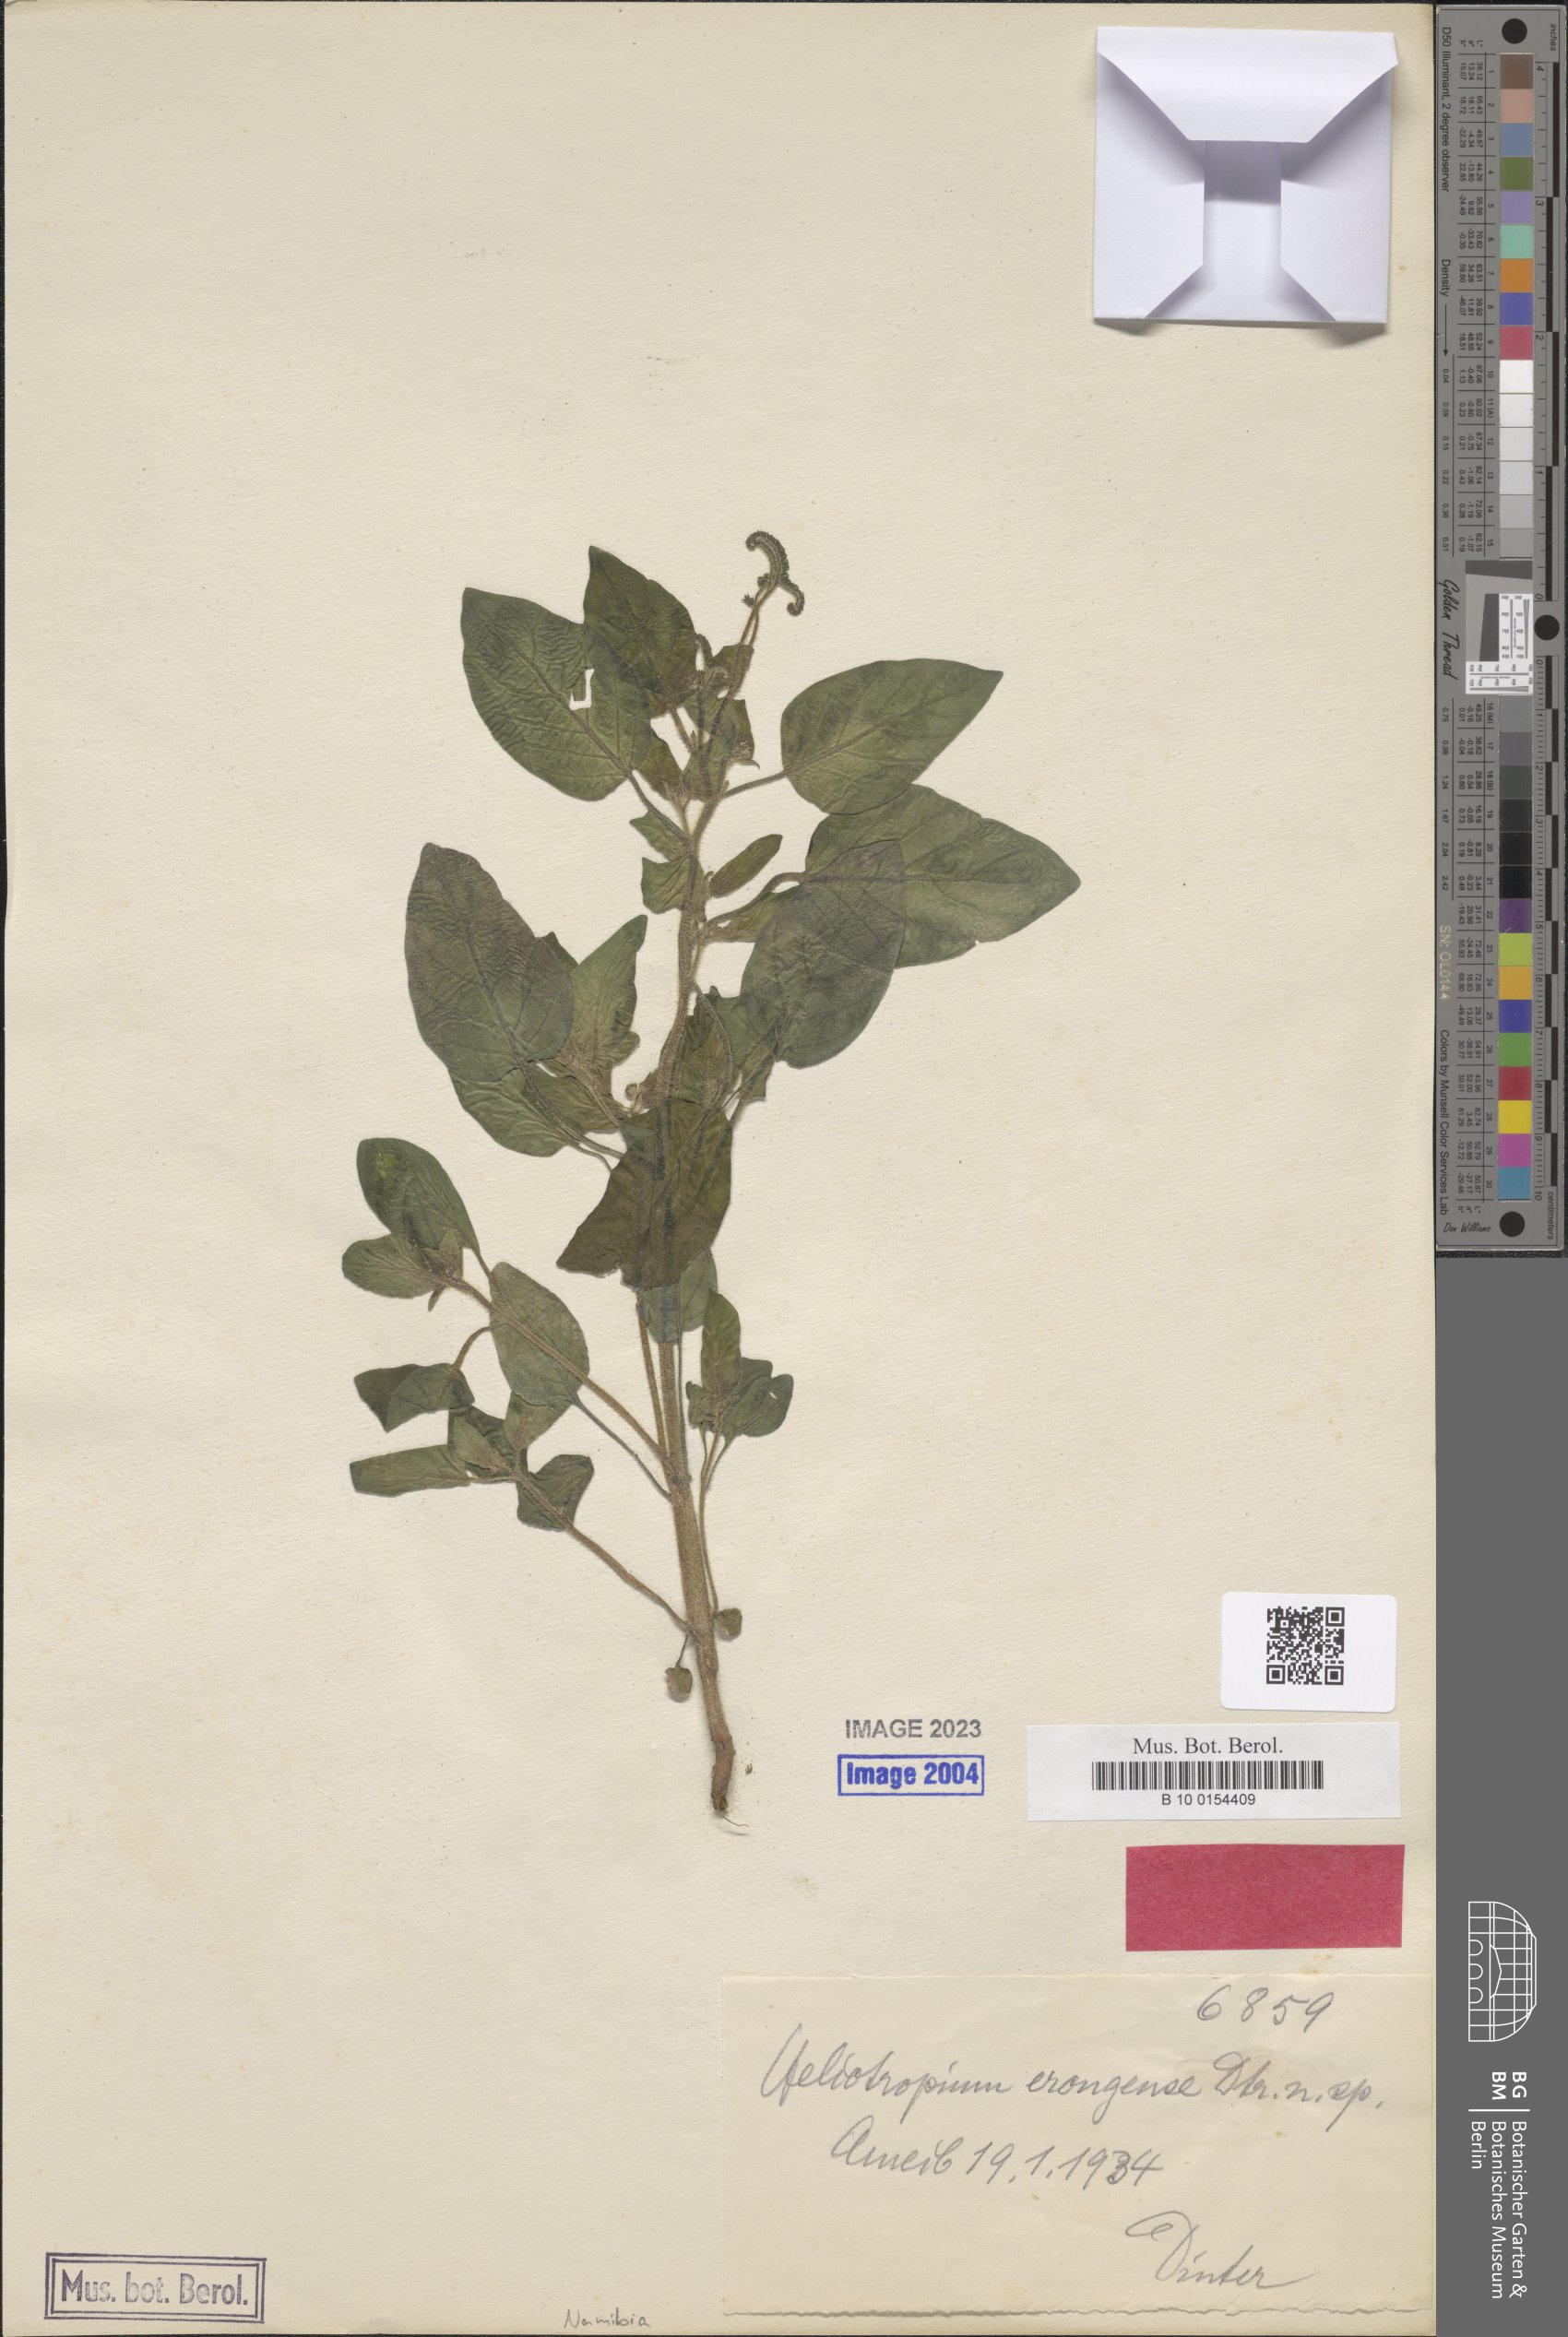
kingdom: Plantae
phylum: Tracheophyta
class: Magnoliopsida
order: Boraginales
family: Heliotropiaceae
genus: Heliotropium
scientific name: Heliotropium albiflorum
